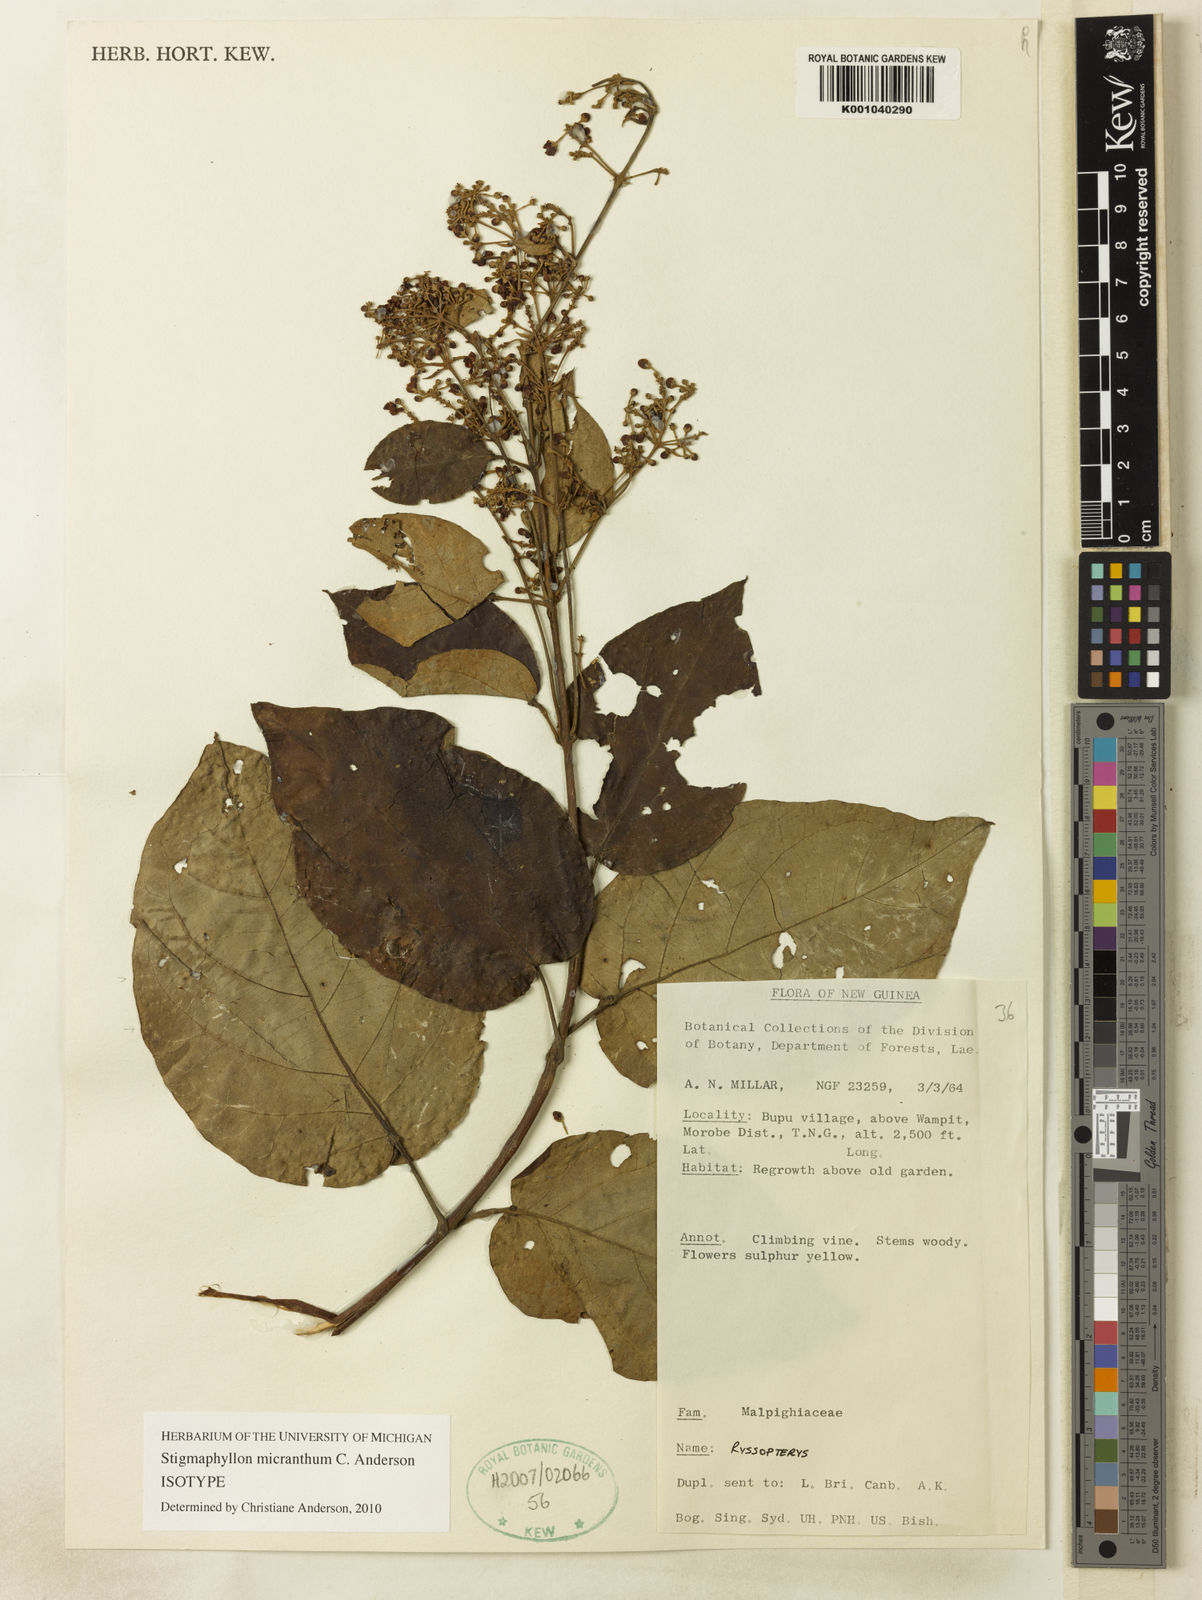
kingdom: Plantae
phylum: Tracheophyta
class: Magnoliopsida
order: Malpighiales
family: Malpighiaceae
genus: Stigmaphyllon
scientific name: Stigmaphyllon micranthum
